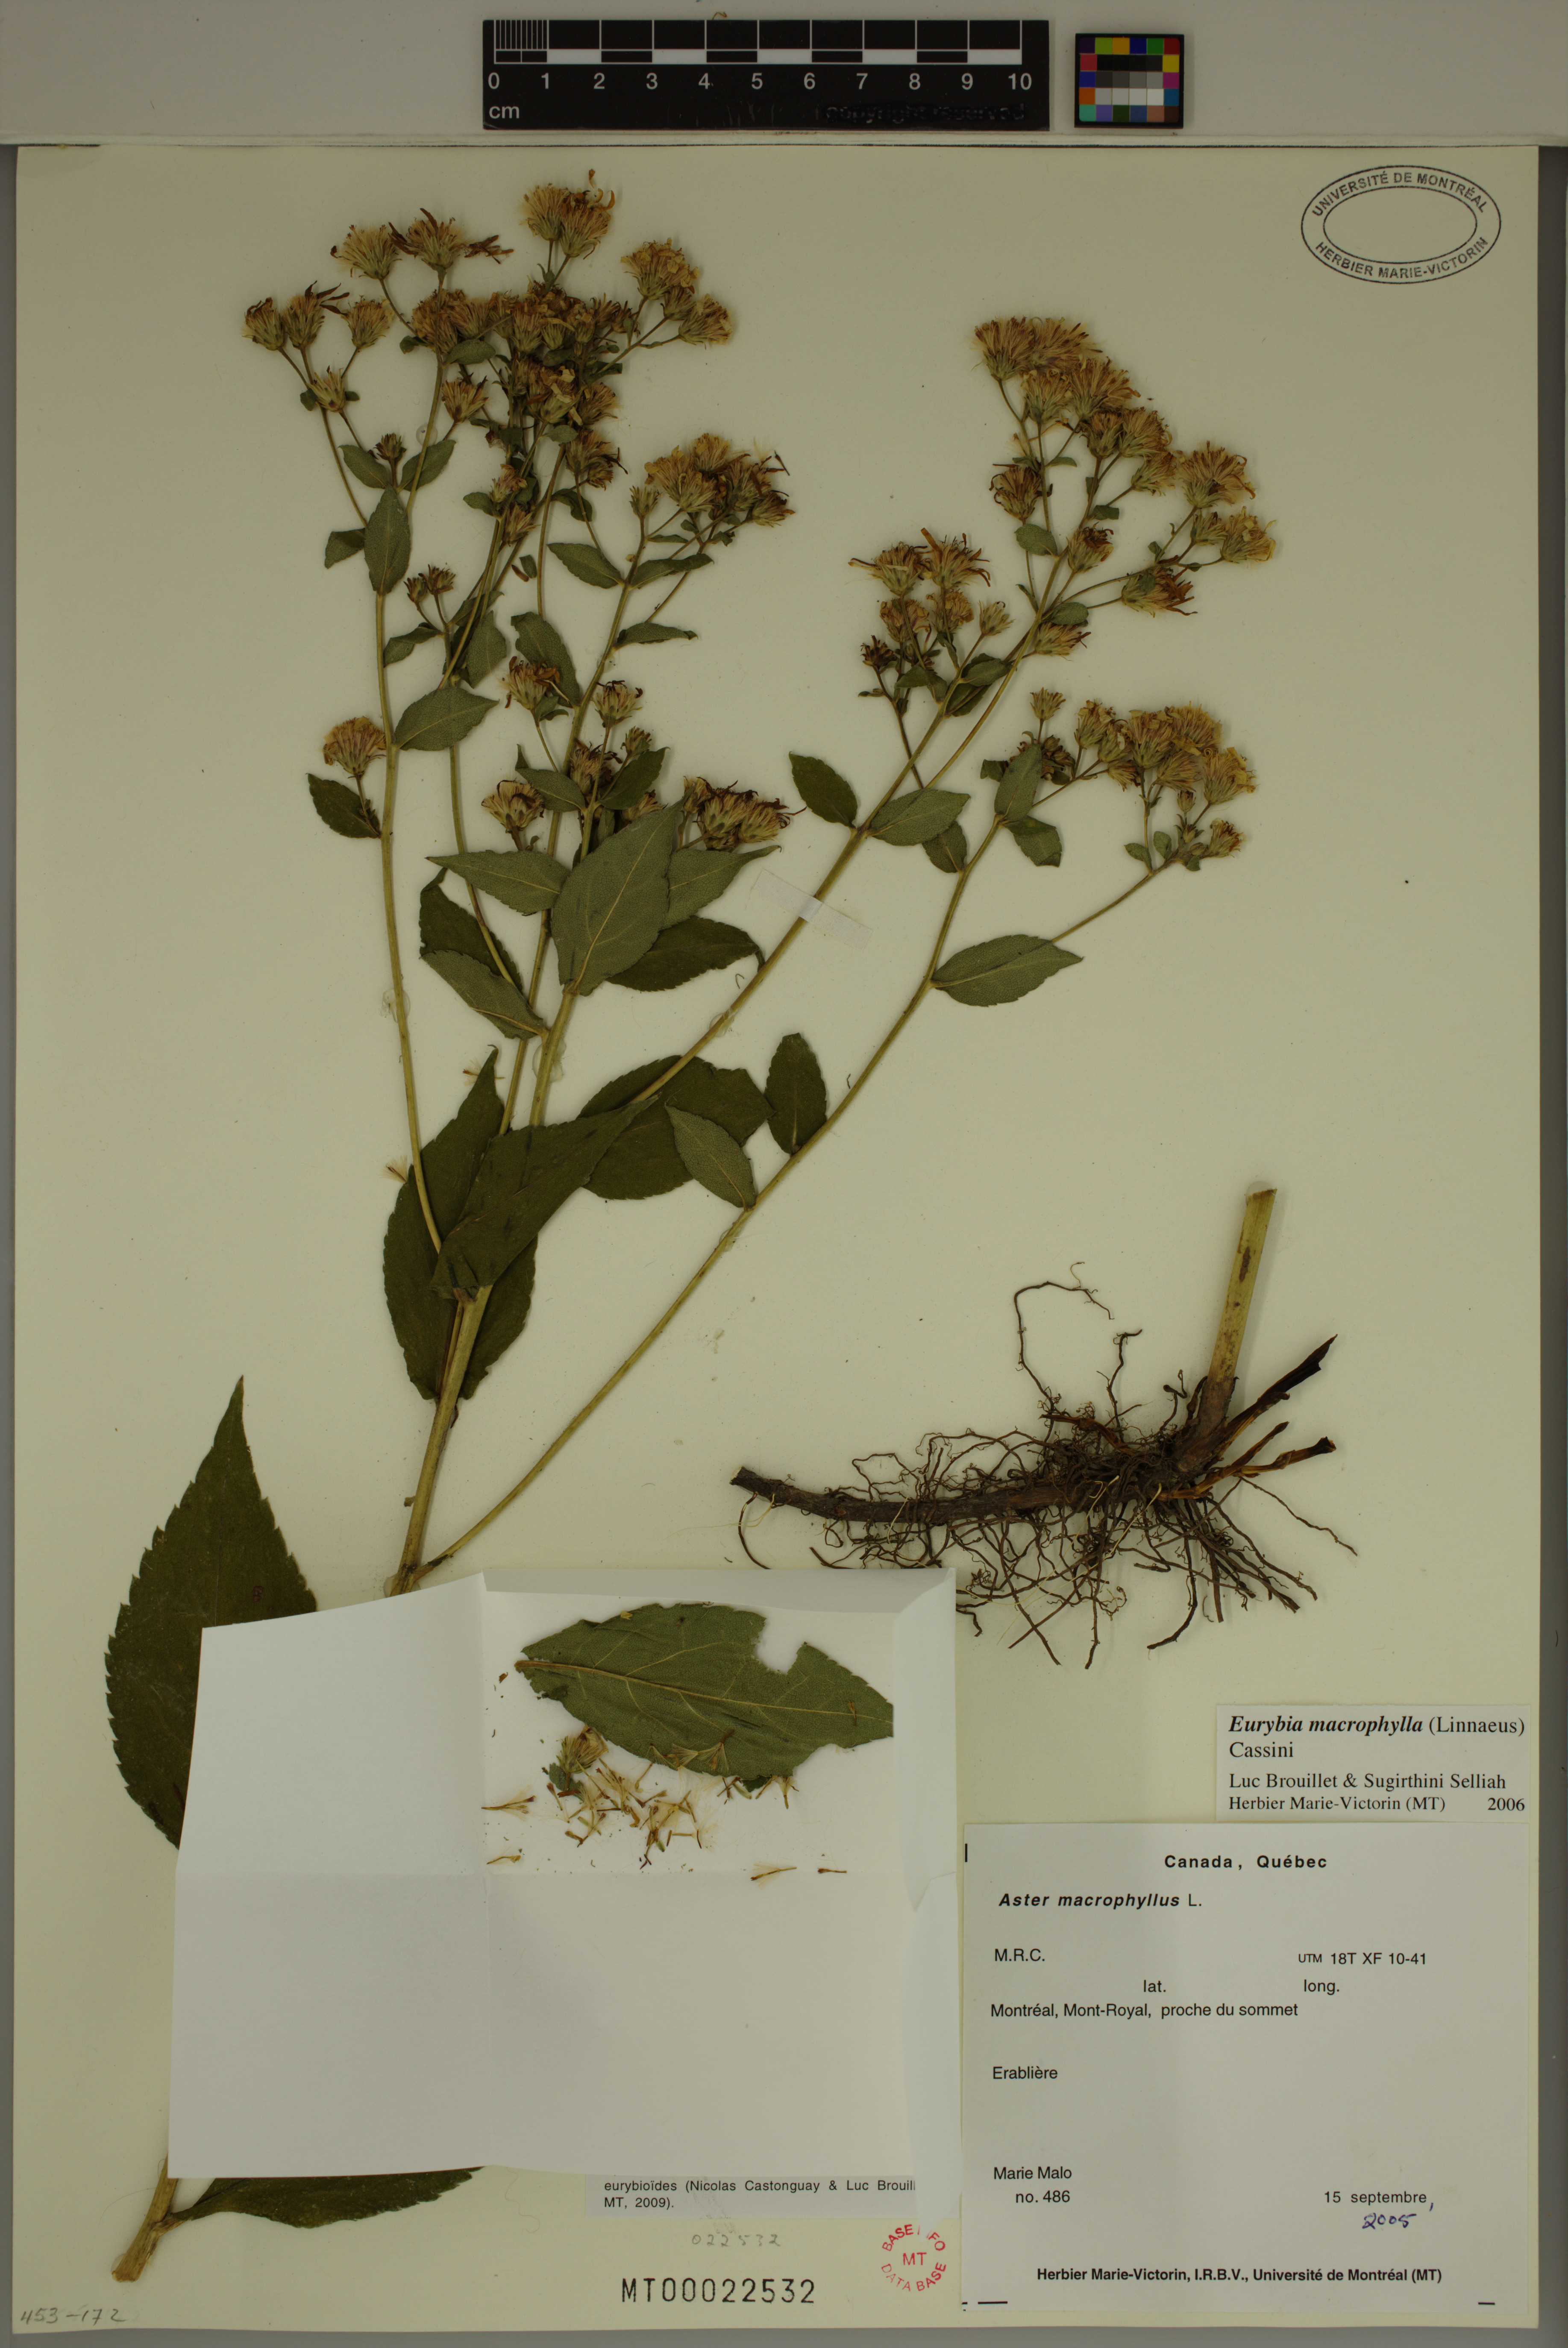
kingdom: Plantae
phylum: Tracheophyta
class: Magnoliopsida
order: Asterales
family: Asteraceae
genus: Eurybia
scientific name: Eurybia macrophylla
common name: Big-leaved aster
